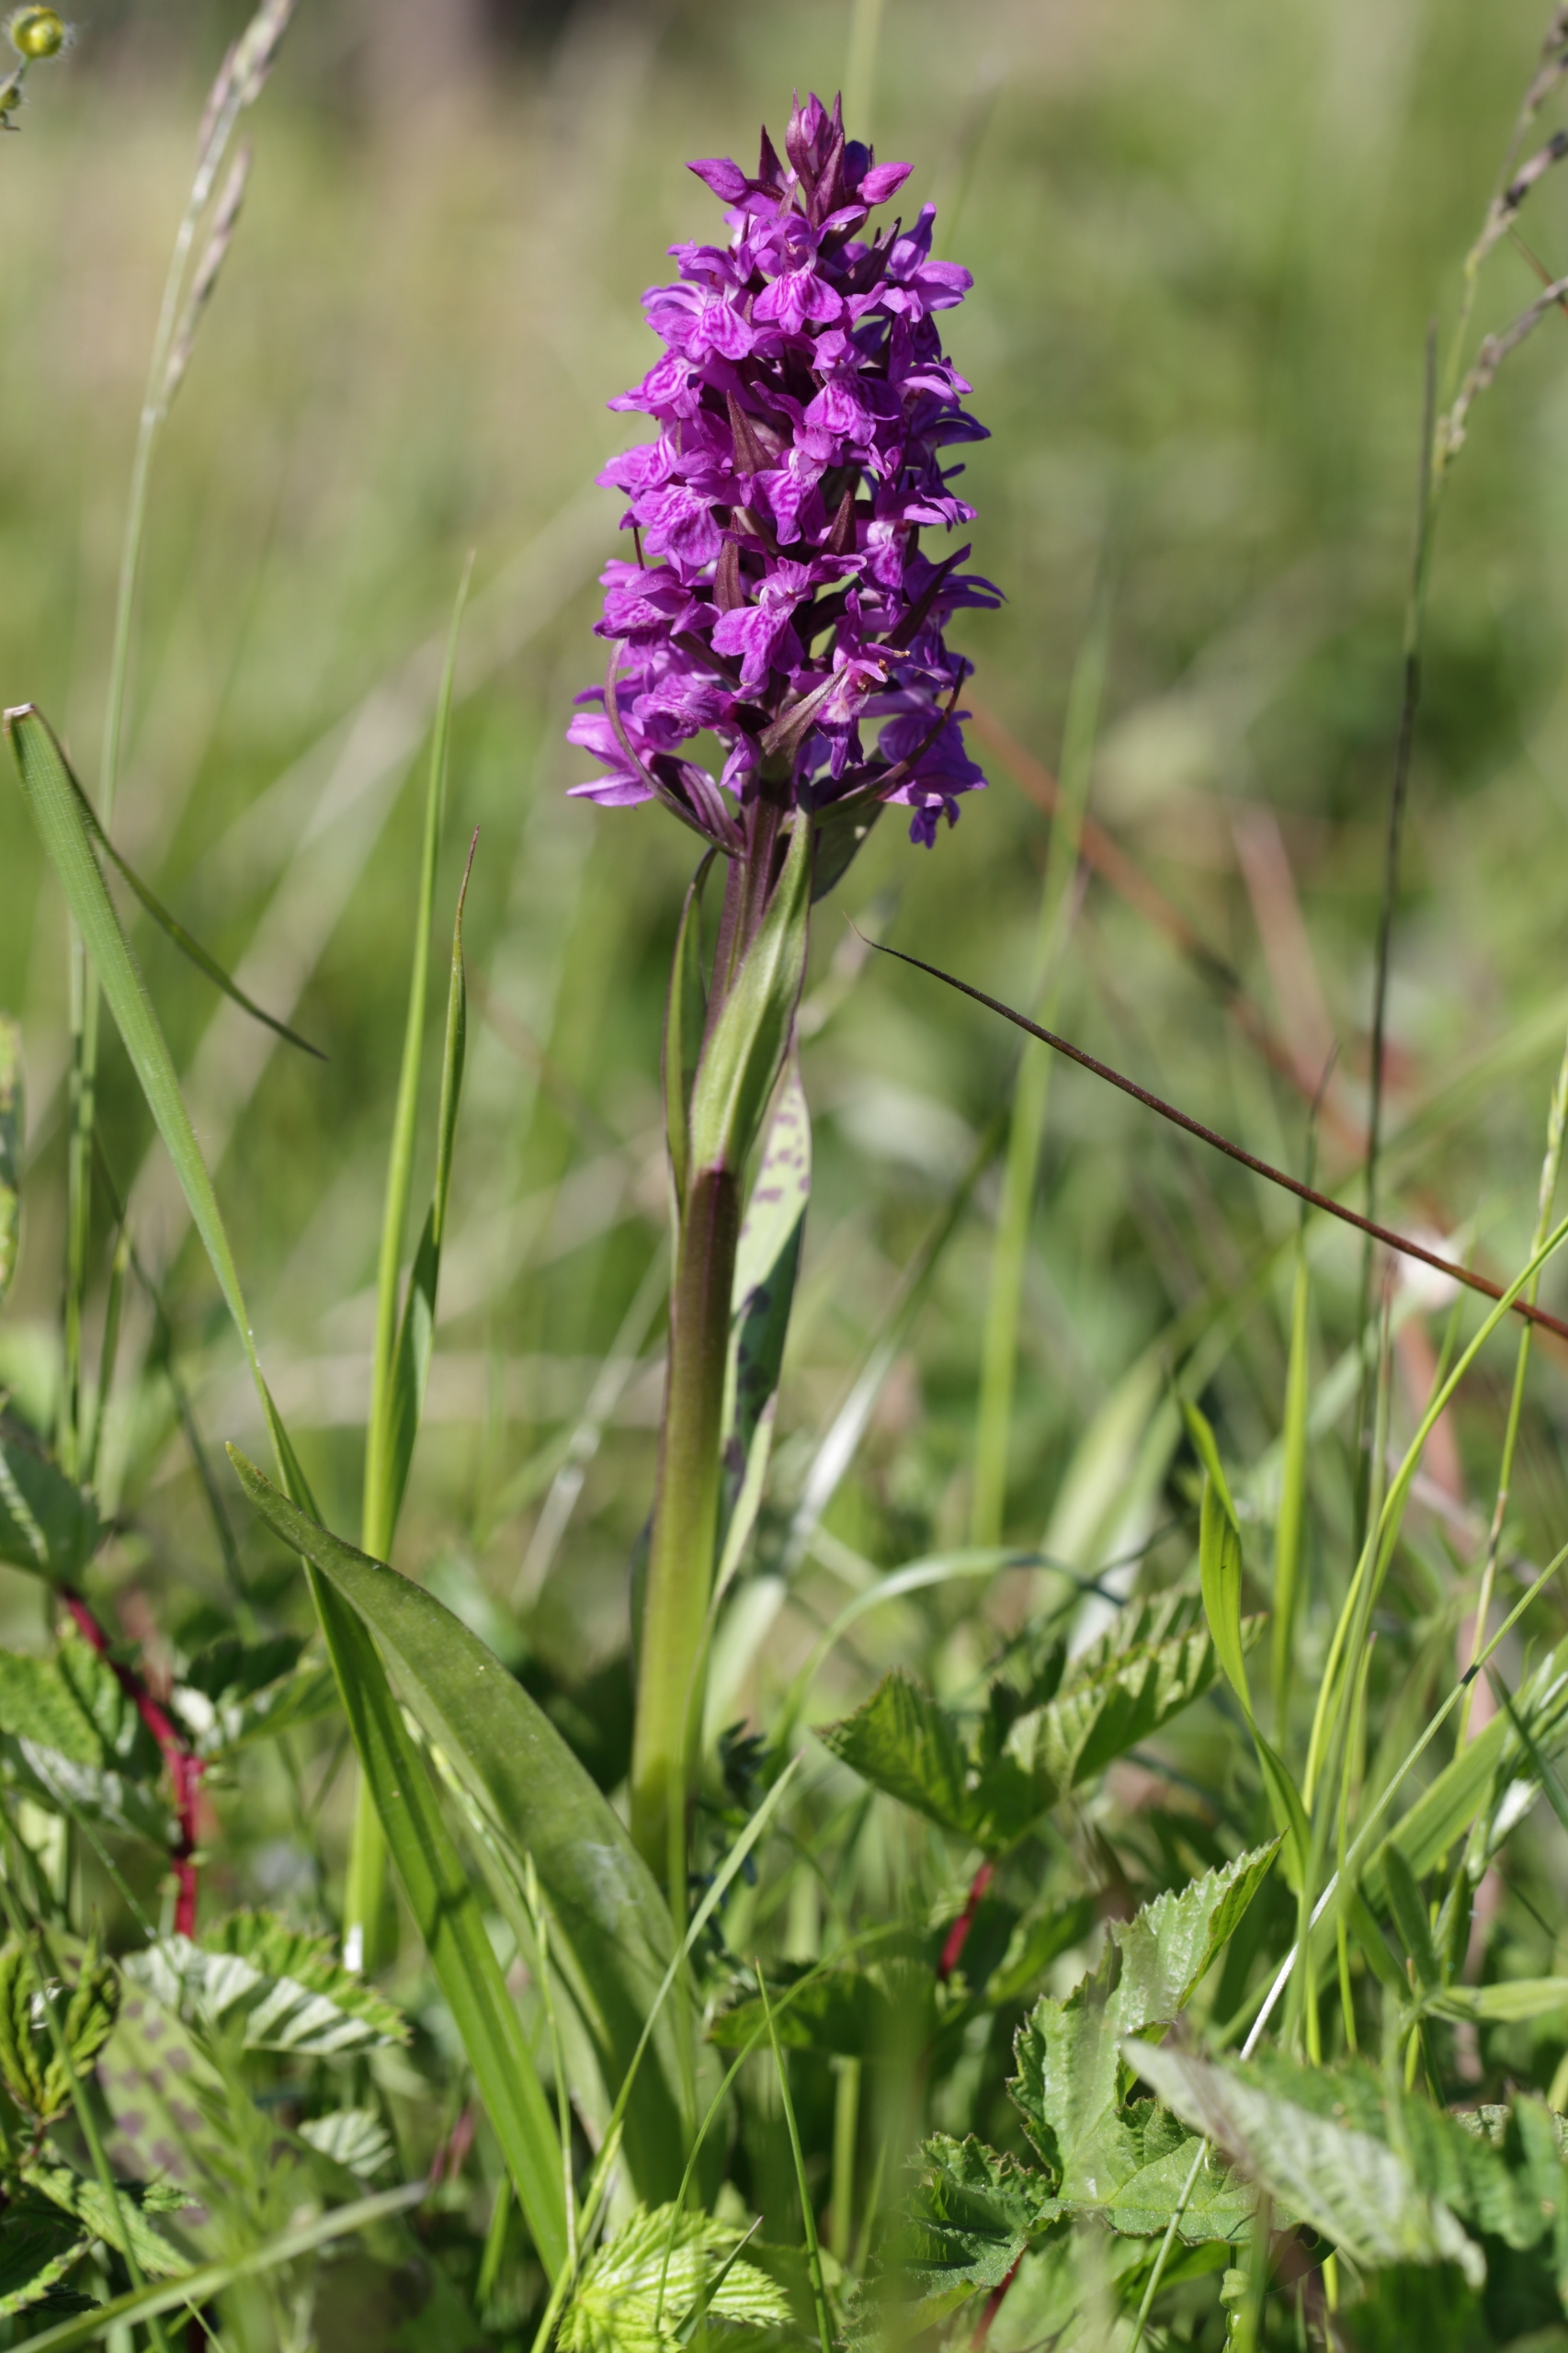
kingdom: Plantae
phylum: Tracheophyta
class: Liliopsida
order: Asparagales
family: Orchidaceae
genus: Dactylorhiza
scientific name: Dactylorhiza majalis
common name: Maj-gøgeurt
